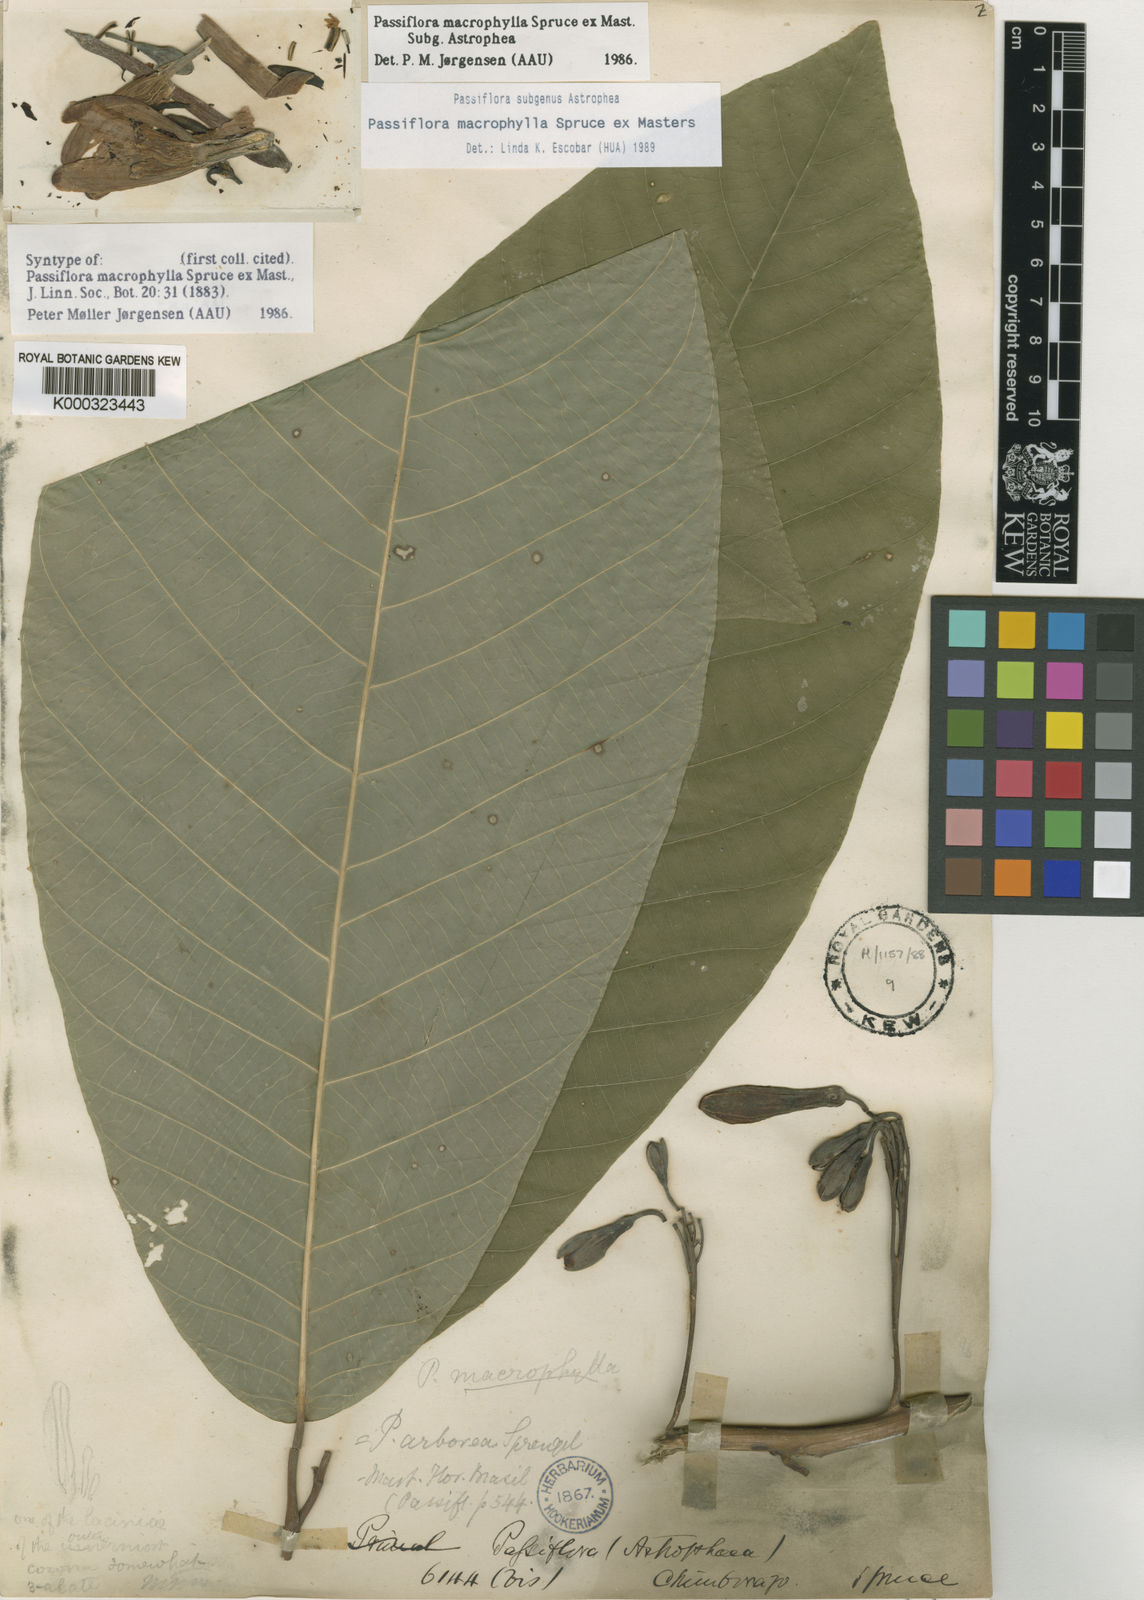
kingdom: Plantae
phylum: Tracheophyta
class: Magnoliopsida
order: Malpighiales
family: Passifloraceae
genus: Passiflora
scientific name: Passiflora macrophylla
